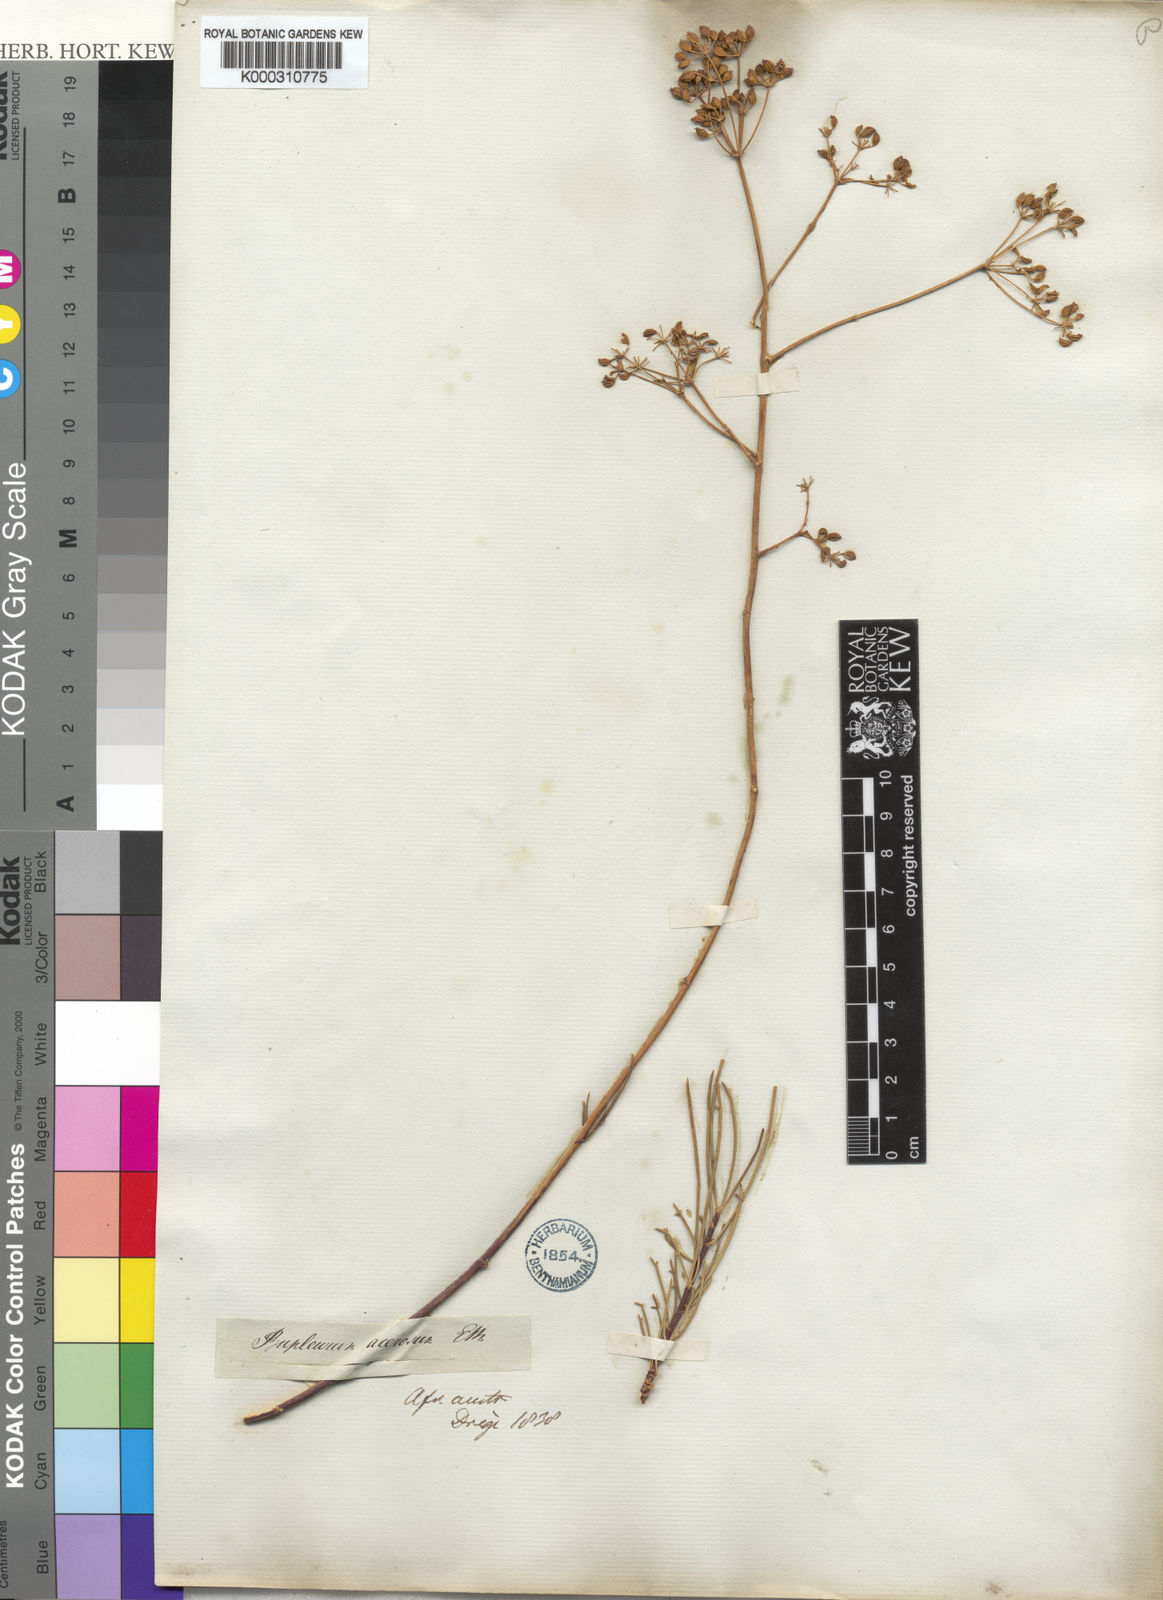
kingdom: Plantae
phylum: Tracheophyta
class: Magnoliopsida
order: Apiales
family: Apiaceae
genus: Anginon
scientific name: Anginon
